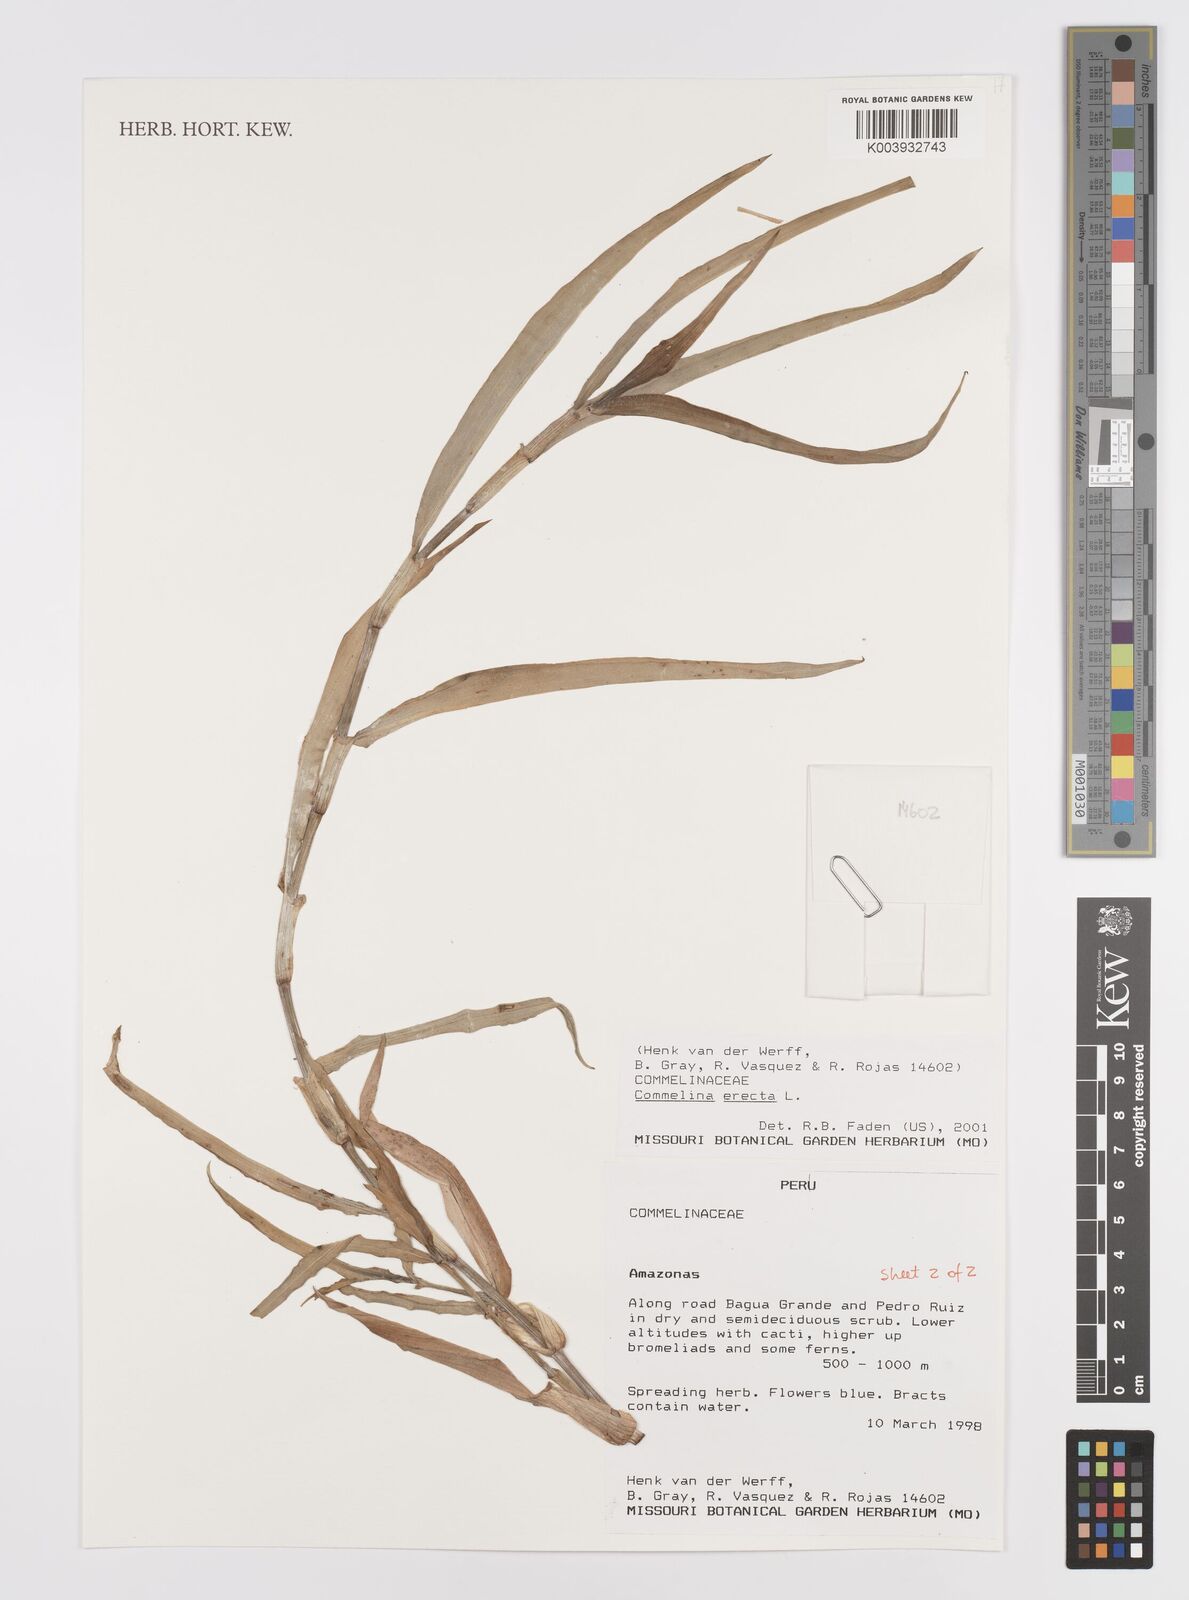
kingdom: Plantae
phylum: Tracheophyta
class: Liliopsida
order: Commelinales
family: Commelinaceae
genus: Commelina
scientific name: Commelina erecta
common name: Blousel blommetjie
